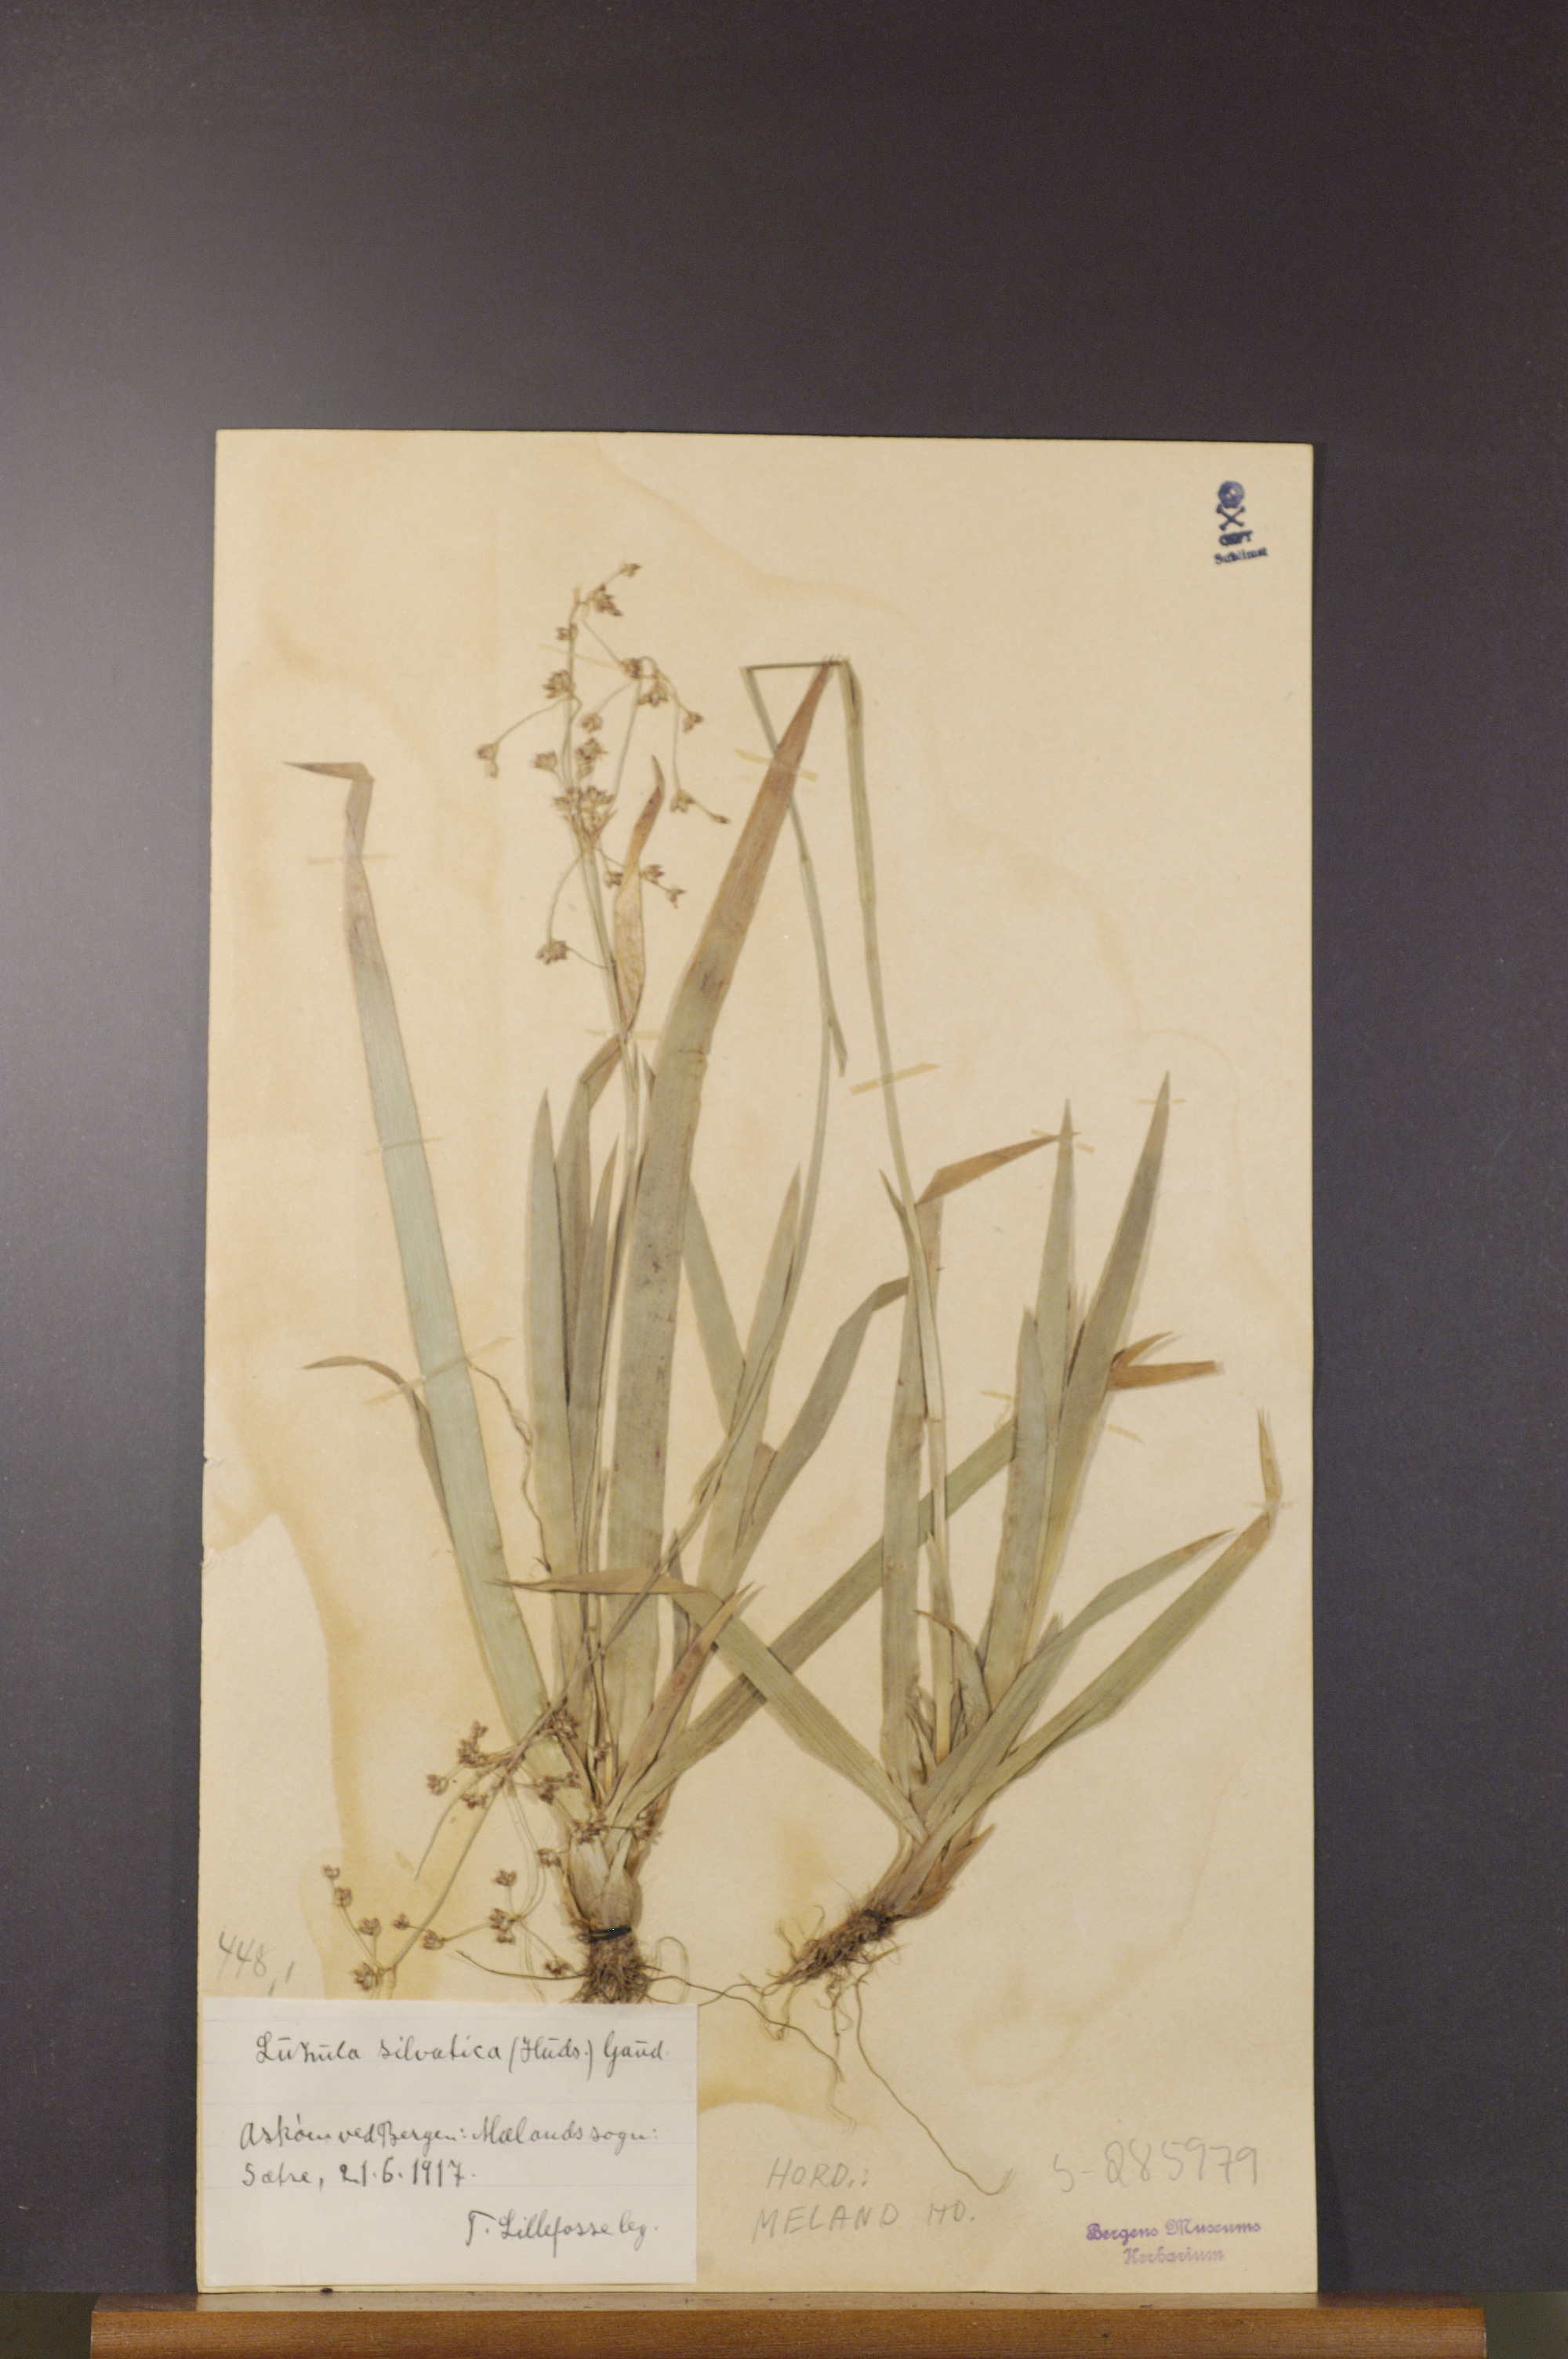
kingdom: Plantae
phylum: Tracheophyta
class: Liliopsida
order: Poales
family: Juncaceae
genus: Luzula
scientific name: Luzula sylvatica
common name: Great wood-rush
